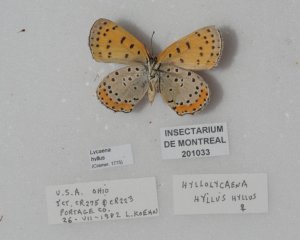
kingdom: Animalia
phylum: Arthropoda
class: Insecta
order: Lepidoptera
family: Sesiidae
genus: Sesia
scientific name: Sesia Lycaena hyllus
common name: Bronze Copper
